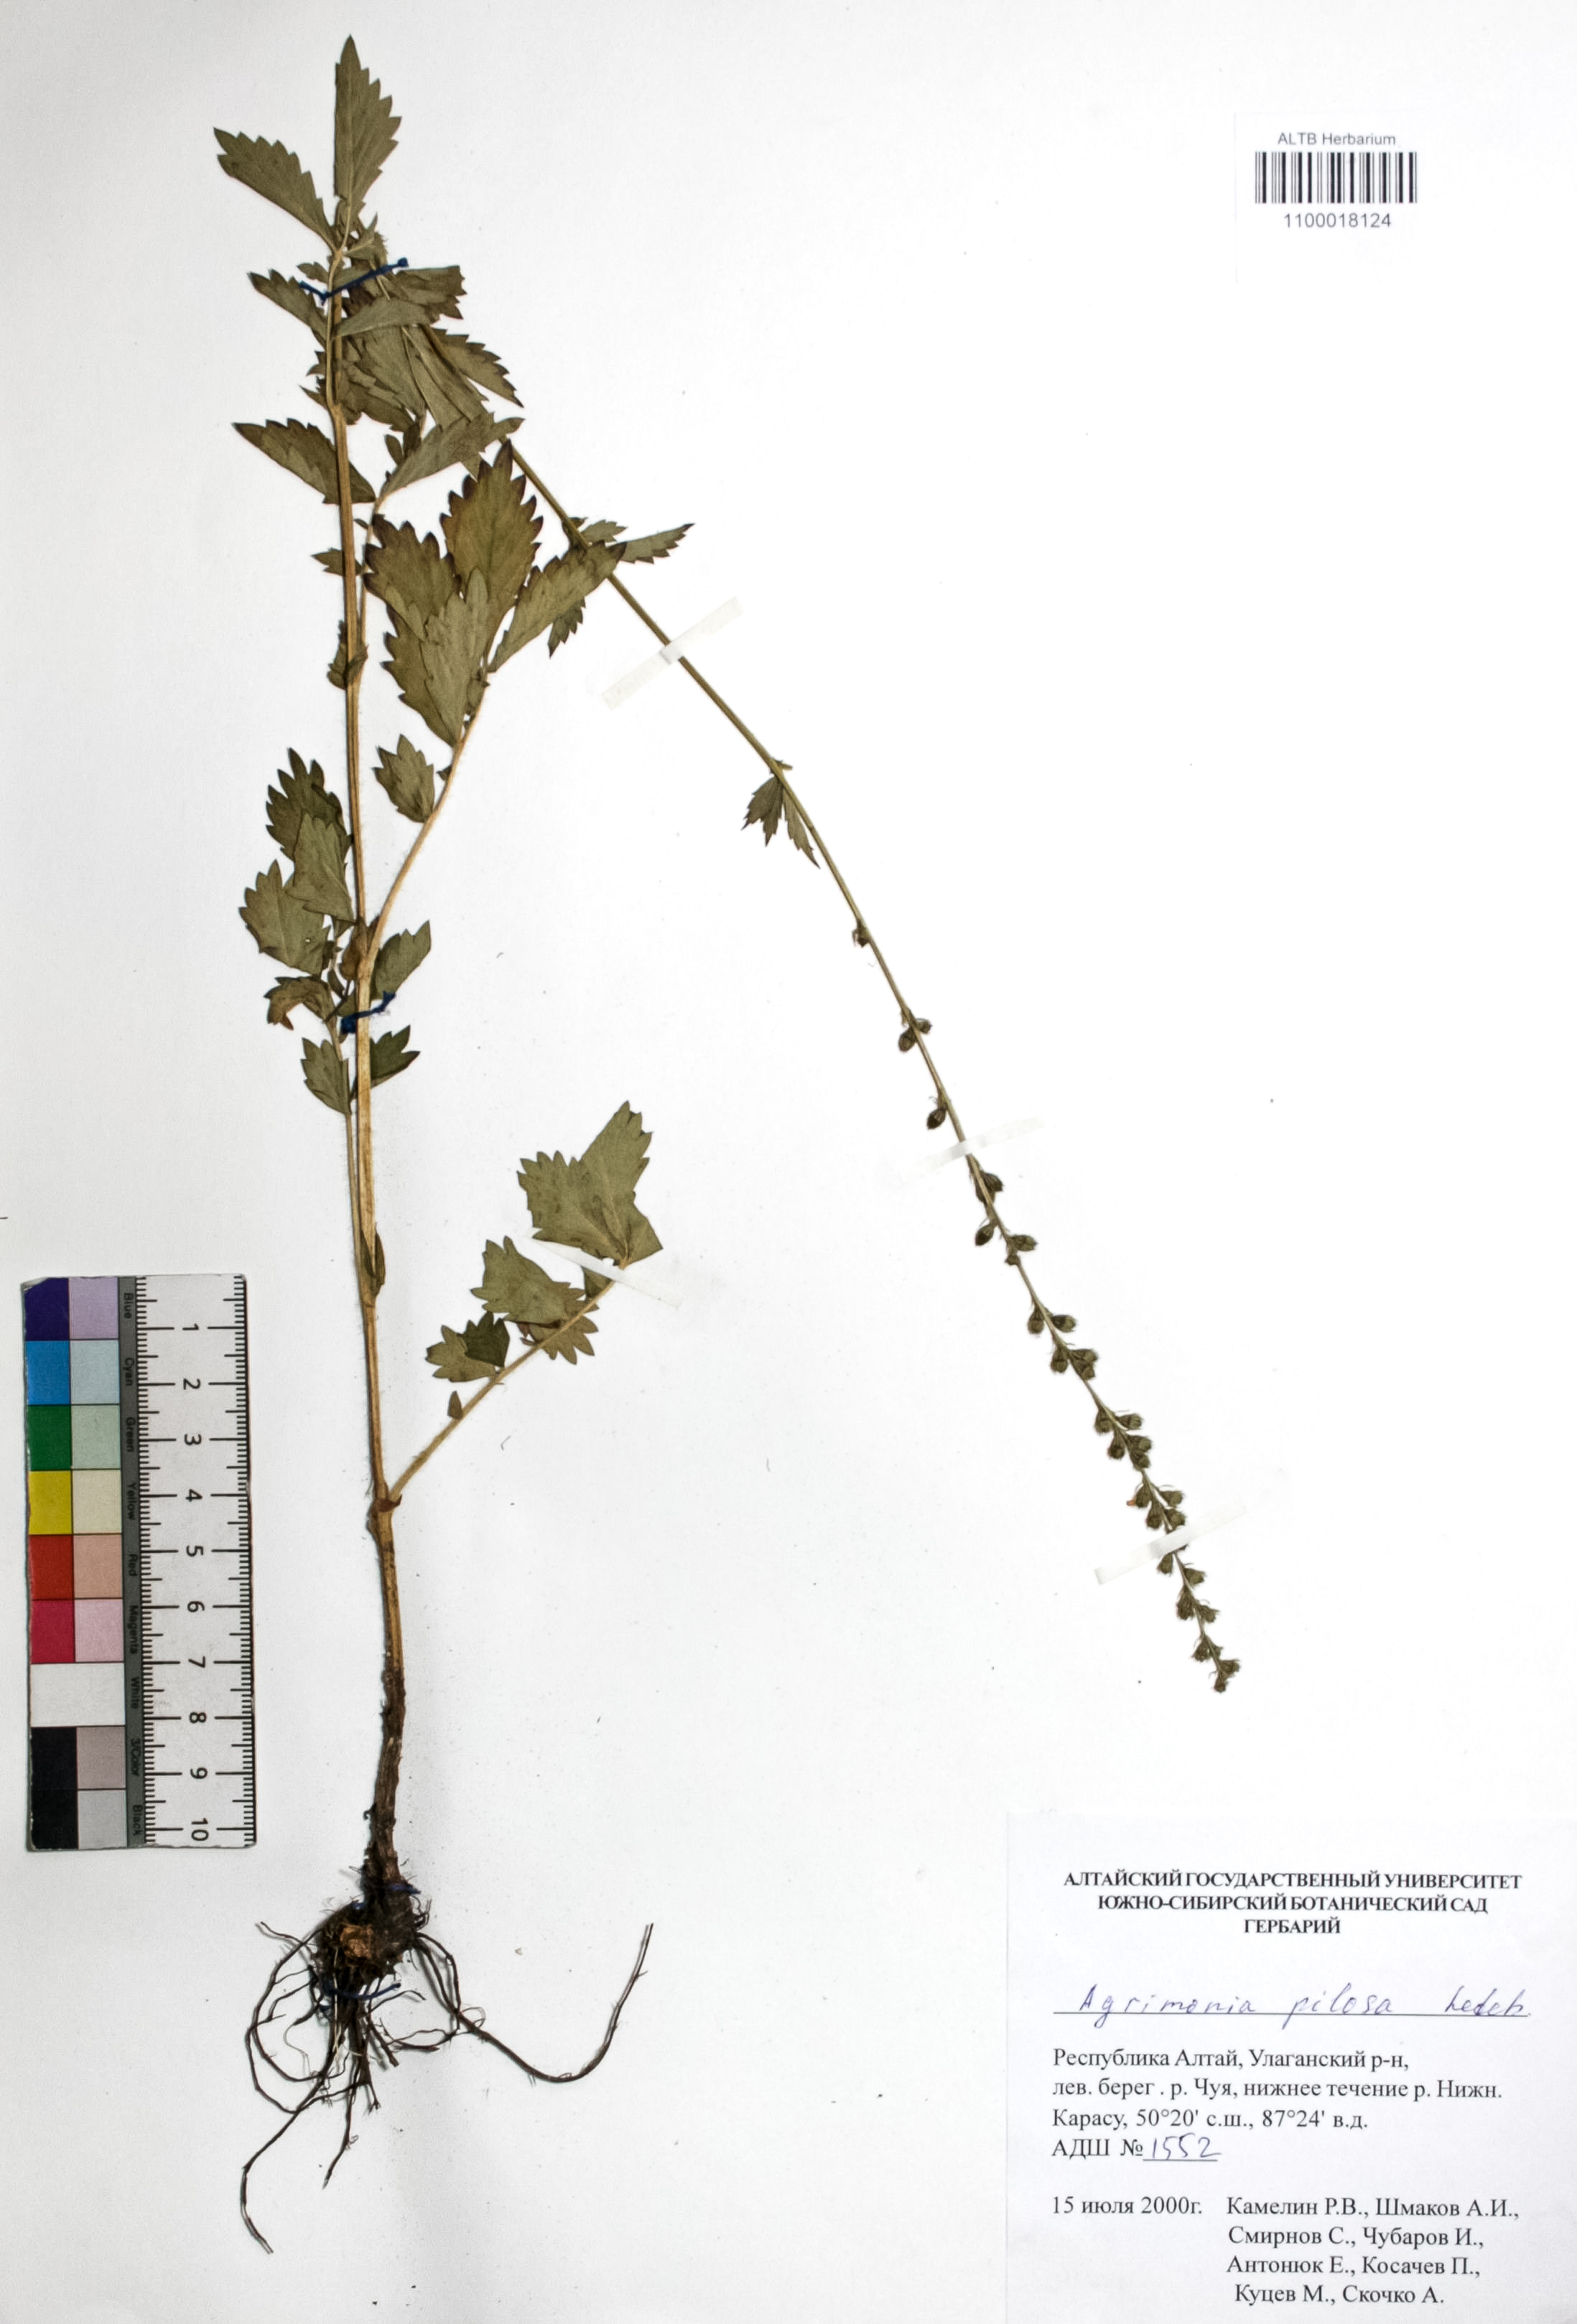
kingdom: Plantae
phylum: Tracheophyta
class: Magnoliopsida
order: Rosales
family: Rosaceae
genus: Agrimonia
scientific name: Agrimonia pilosa
